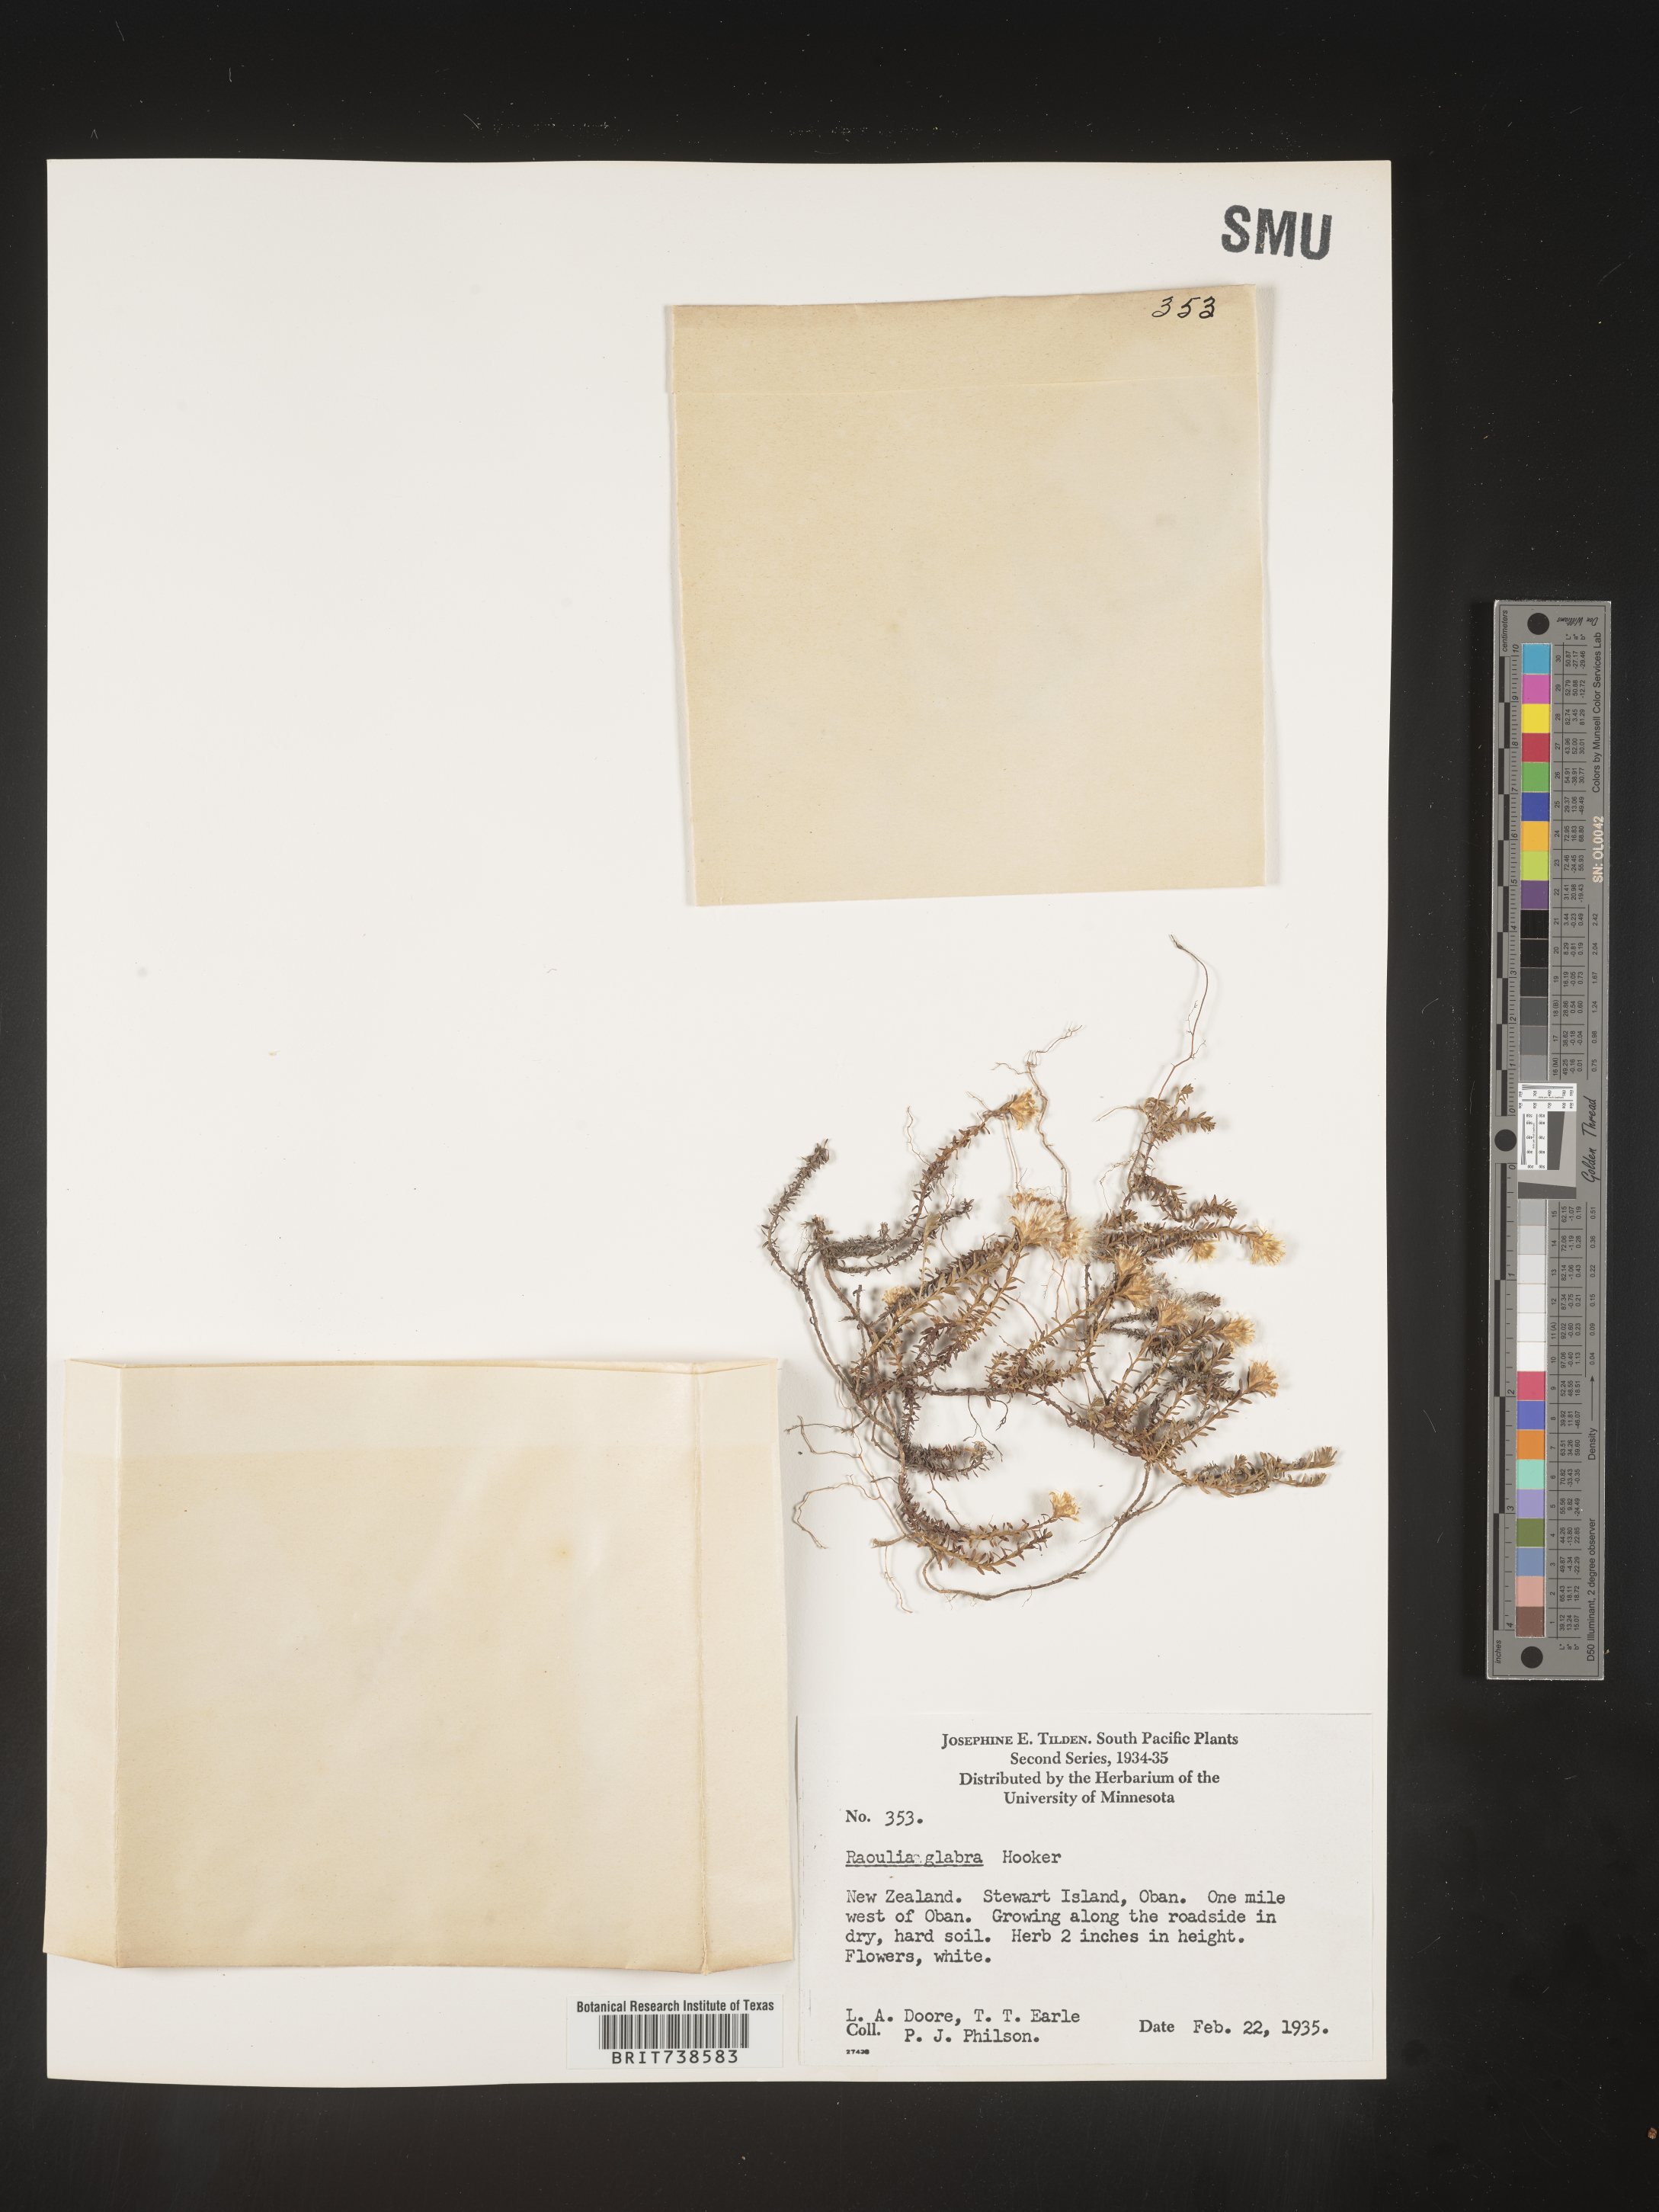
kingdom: Plantae
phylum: Tracheophyta
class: Magnoliopsida
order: Asterales
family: Asteraceae
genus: Raoulia
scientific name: Raoulia
